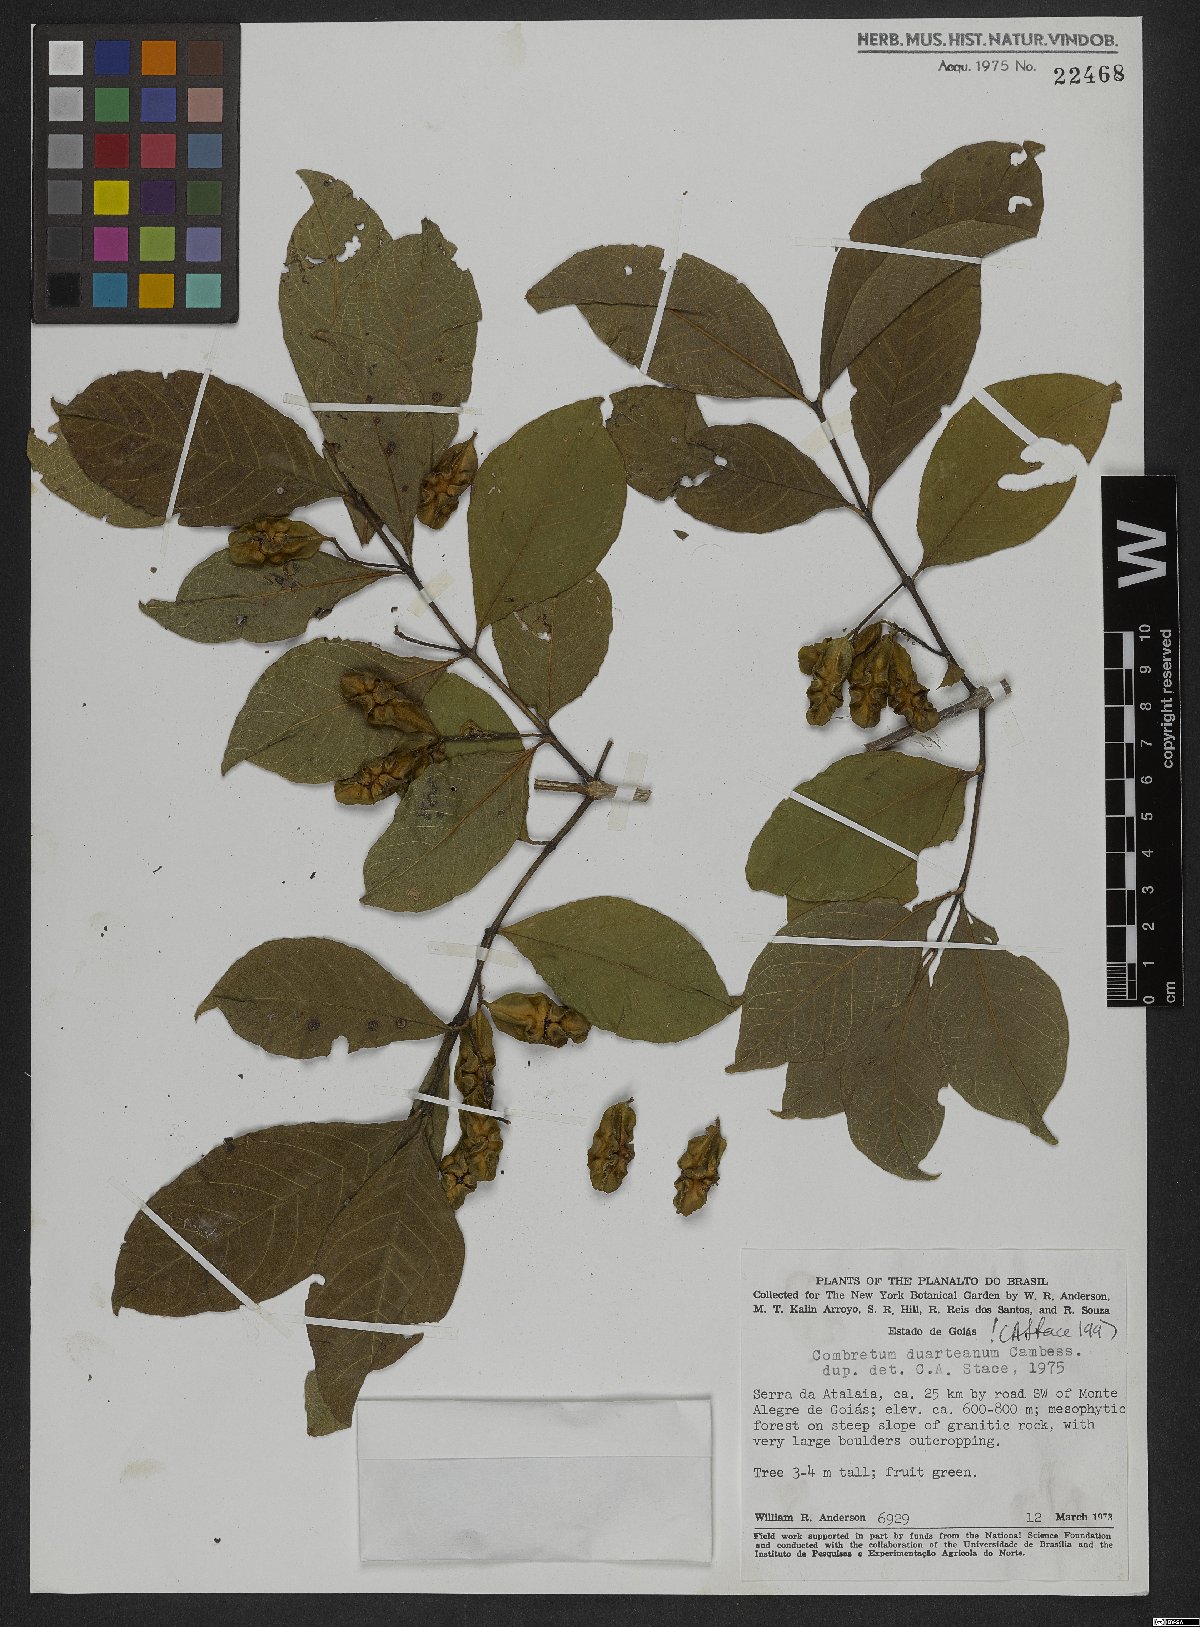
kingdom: Plantae
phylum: Tracheophyta
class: Magnoliopsida
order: Myrtales
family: Combretaceae
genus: Combretum
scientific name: Combretum duarteanum
